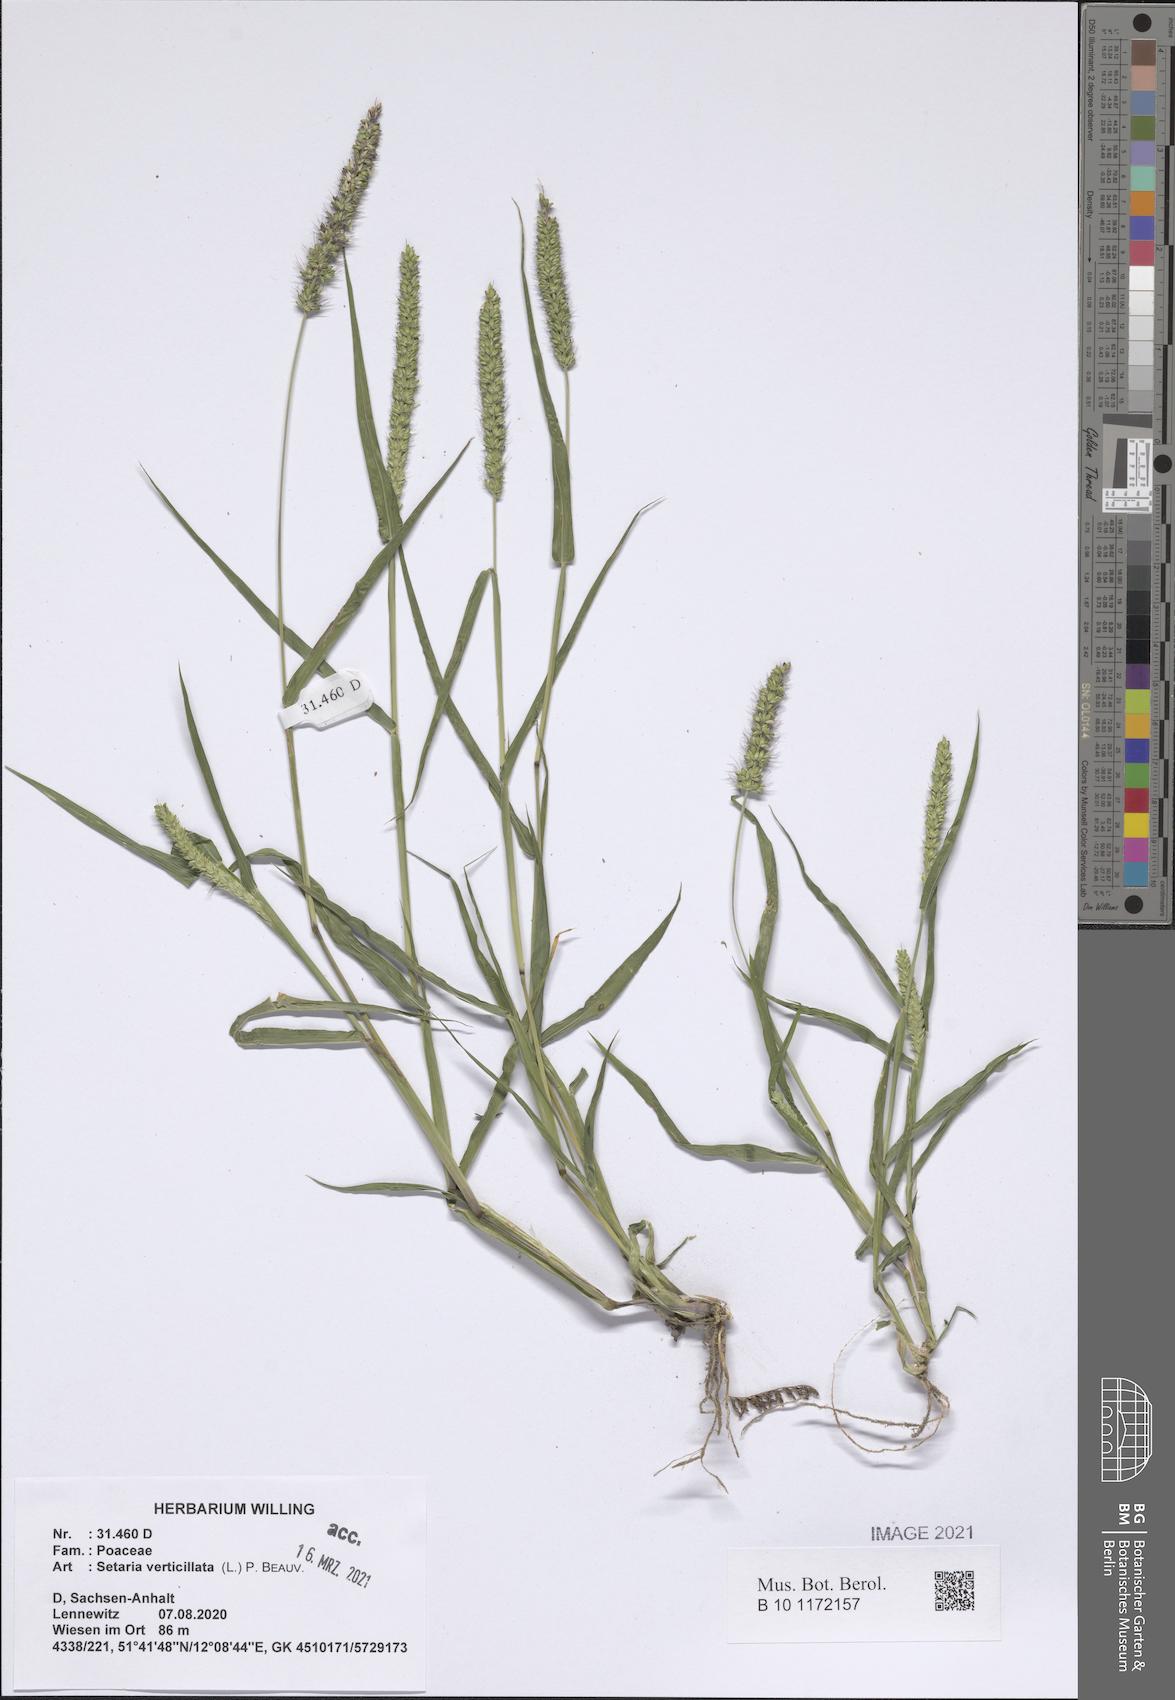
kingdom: Plantae
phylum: Tracheophyta
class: Liliopsida
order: Poales
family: Poaceae
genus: Setaria
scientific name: Setaria verticillata
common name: Hooked bristlegrass
